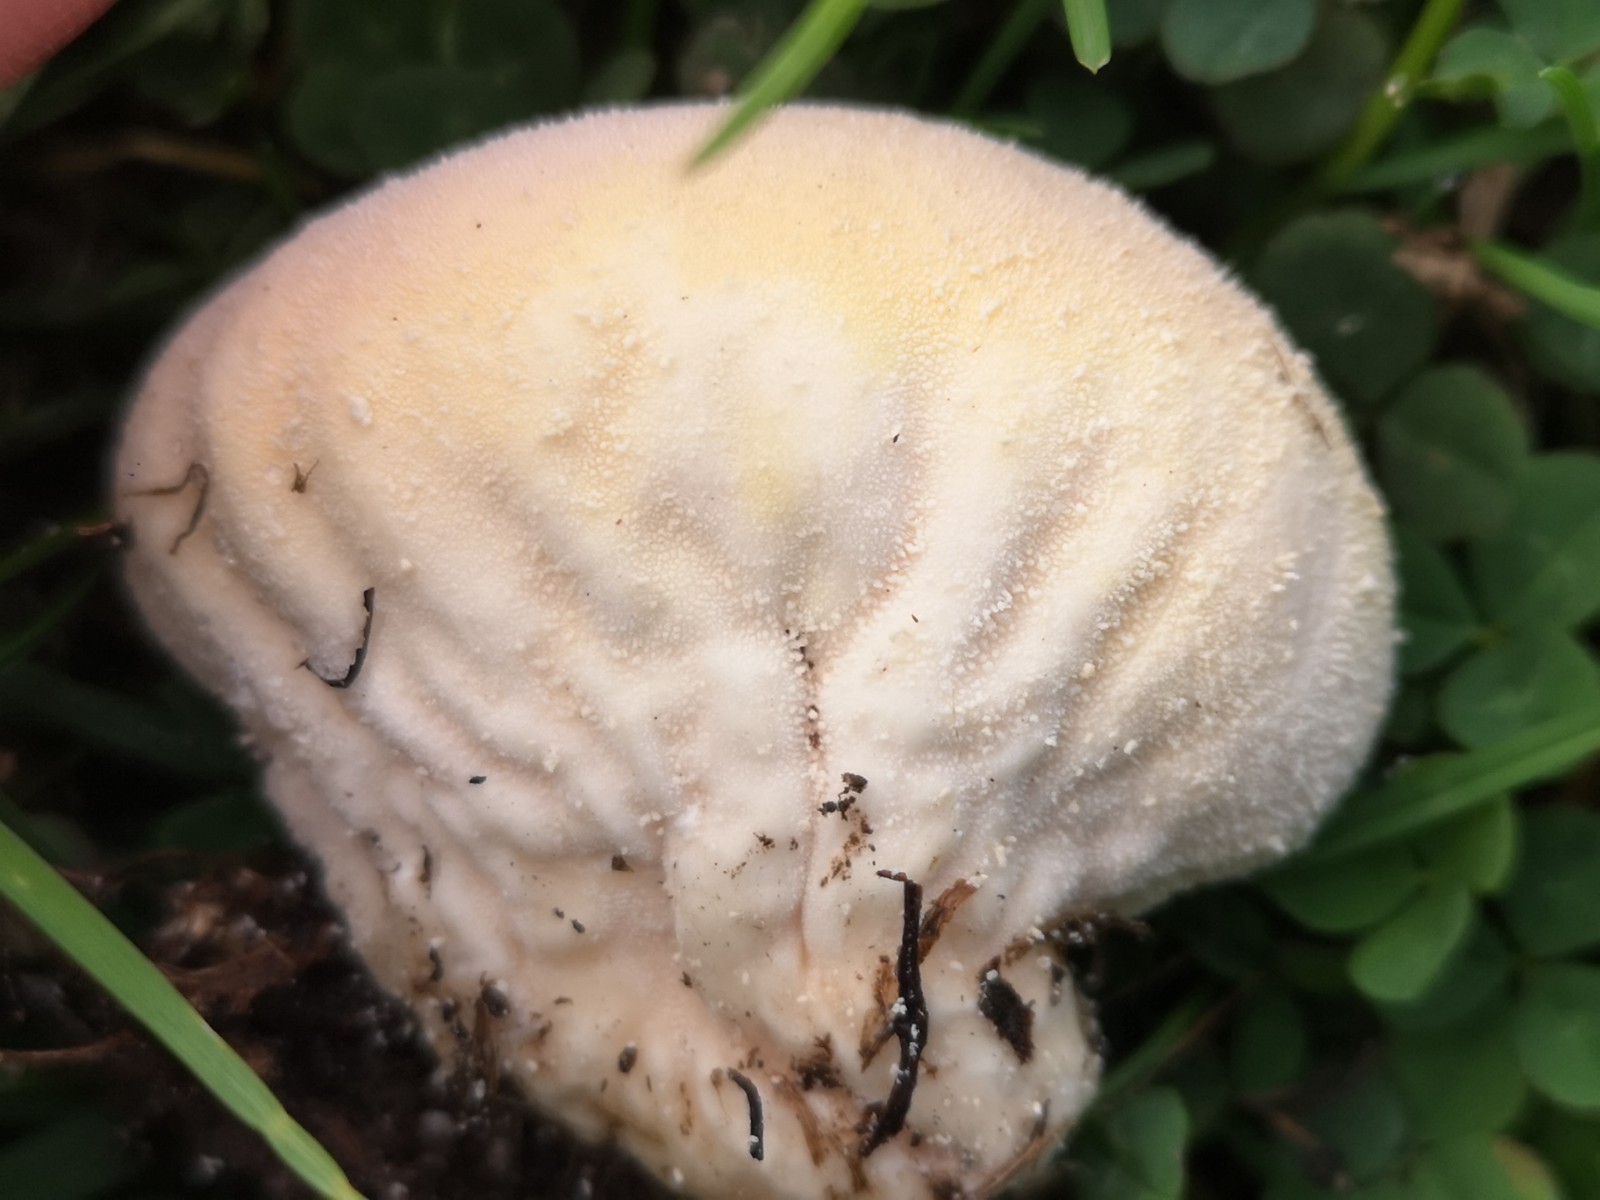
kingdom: Fungi
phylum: Basidiomycota
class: Agaricomycetes
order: Agaricales
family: Lycoperdaceae
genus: Lycoperdon
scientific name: Lycoperdon pratense
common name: flad støvbold
